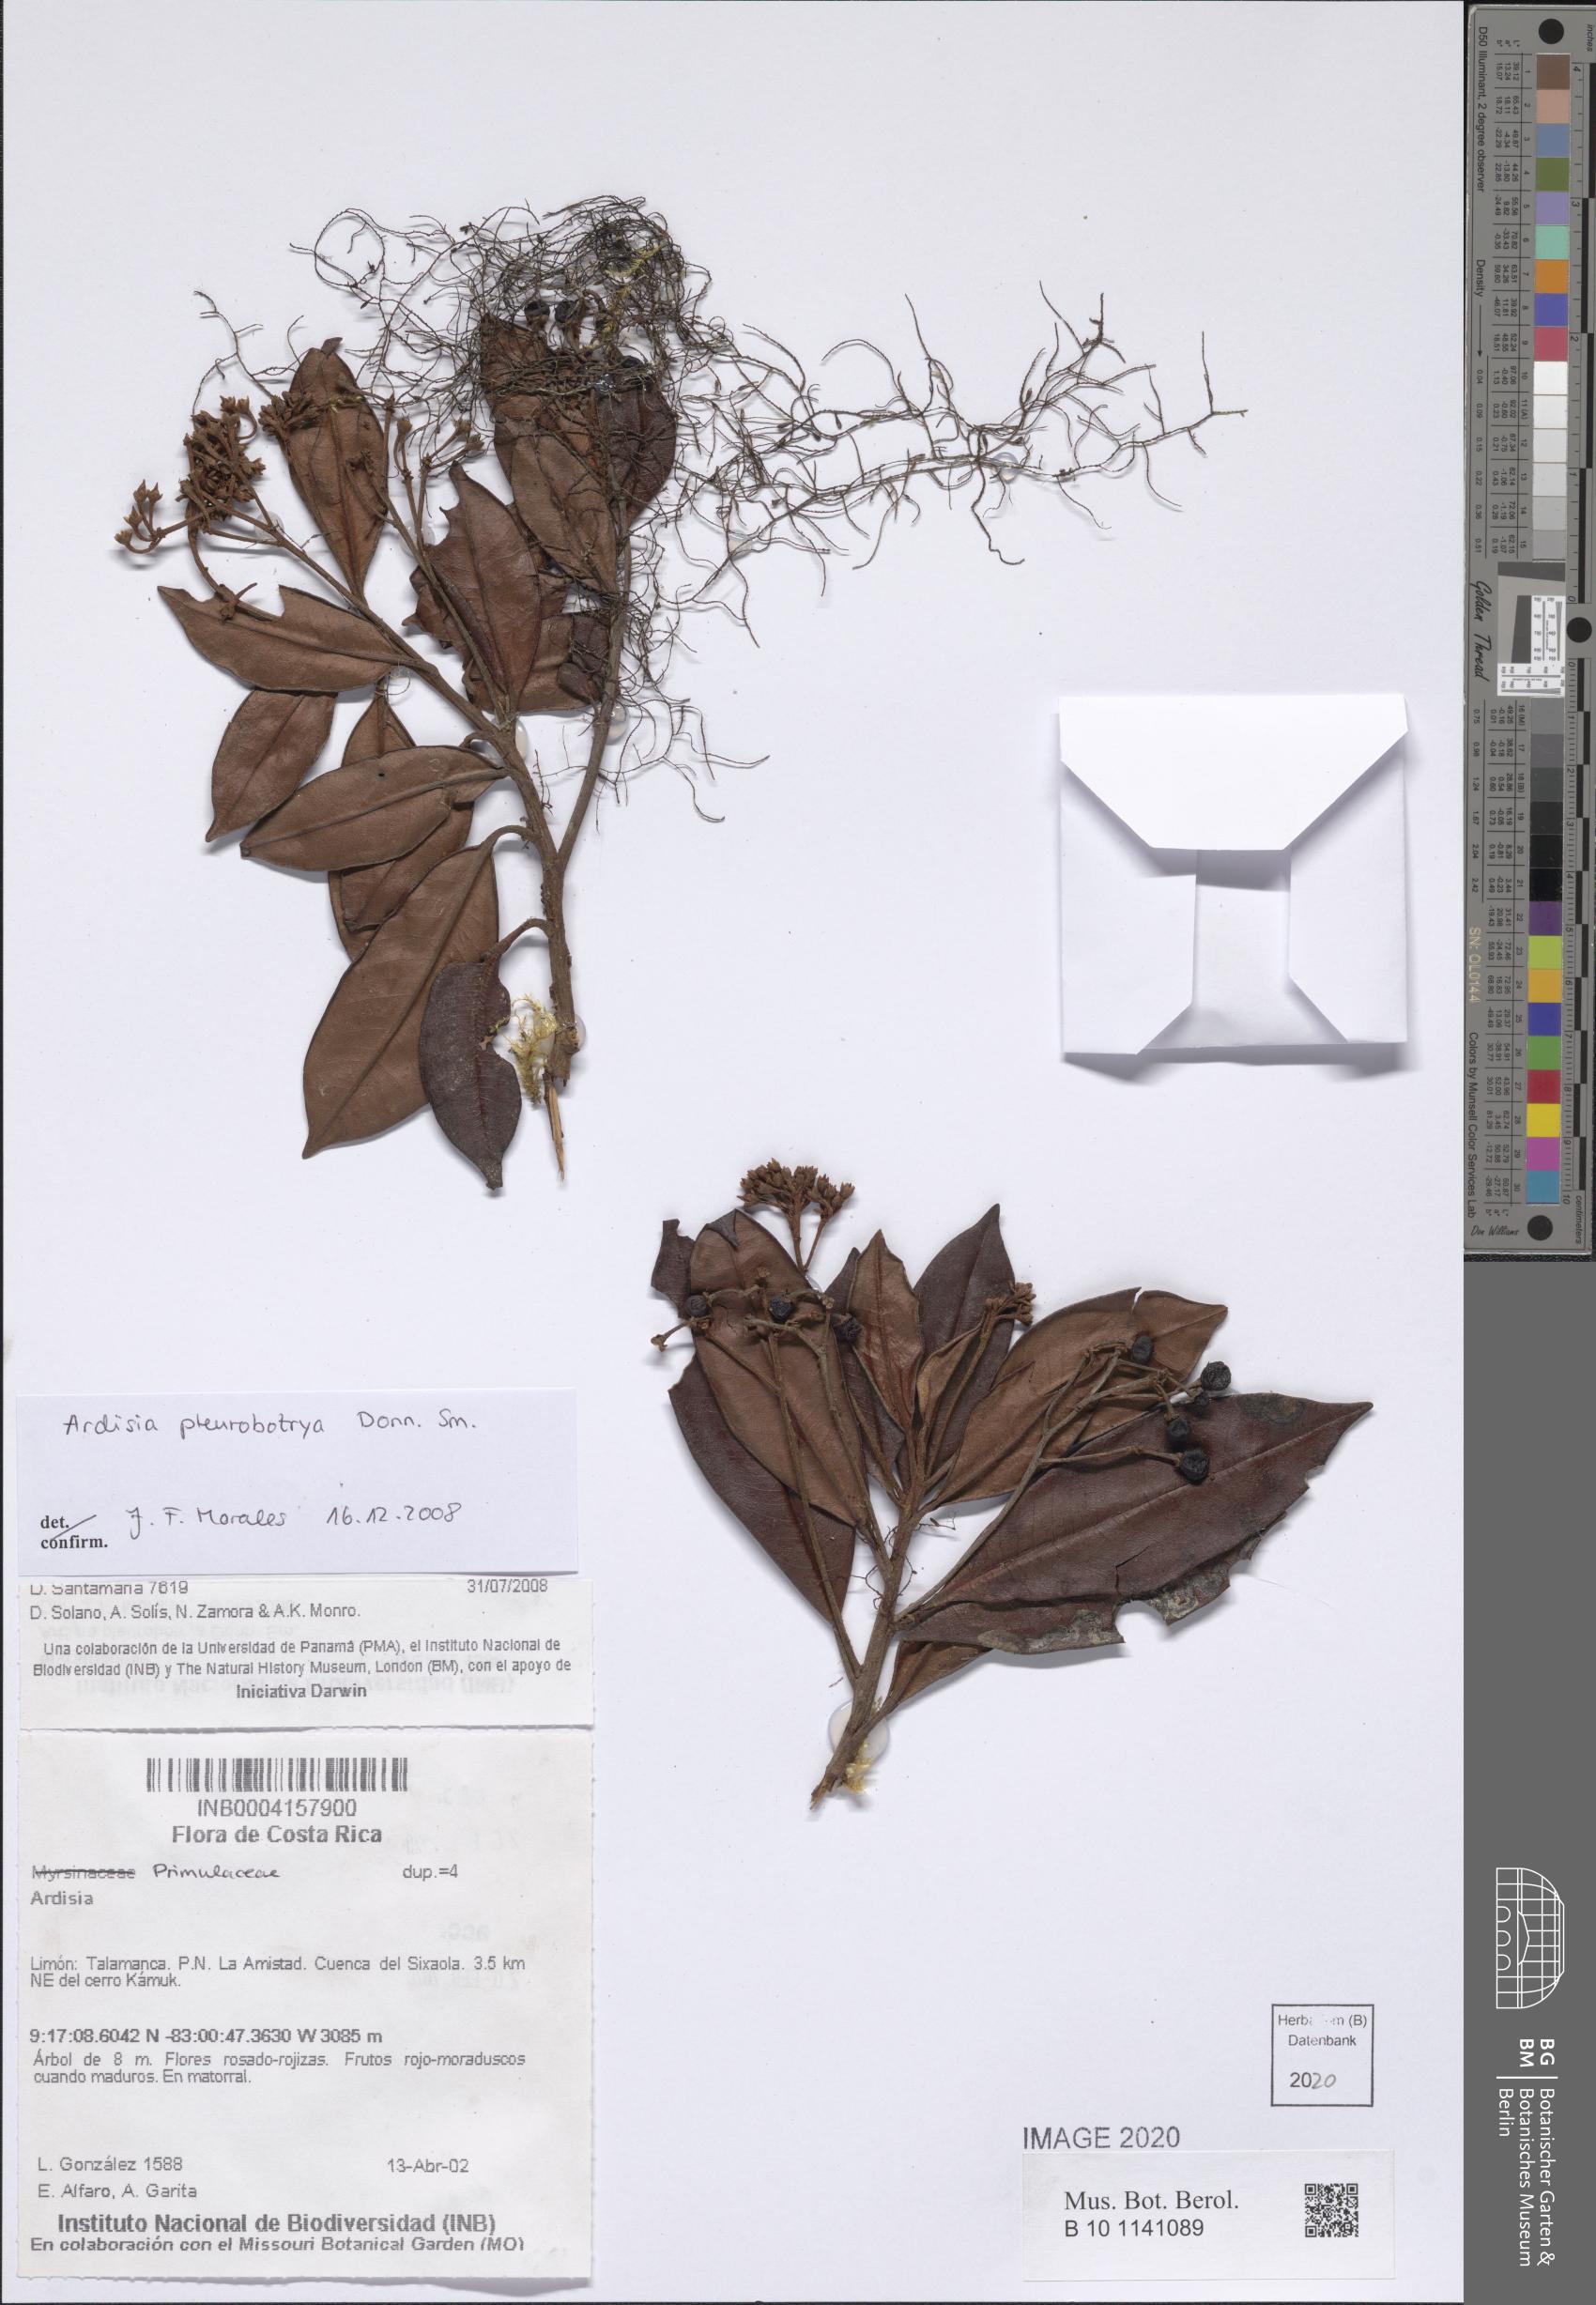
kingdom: Plantae
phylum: Tracheophyta
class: Magnoliopsida
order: Ericales
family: Primulaceae
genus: Ardisia
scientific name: Ardisia pleurobotrya
